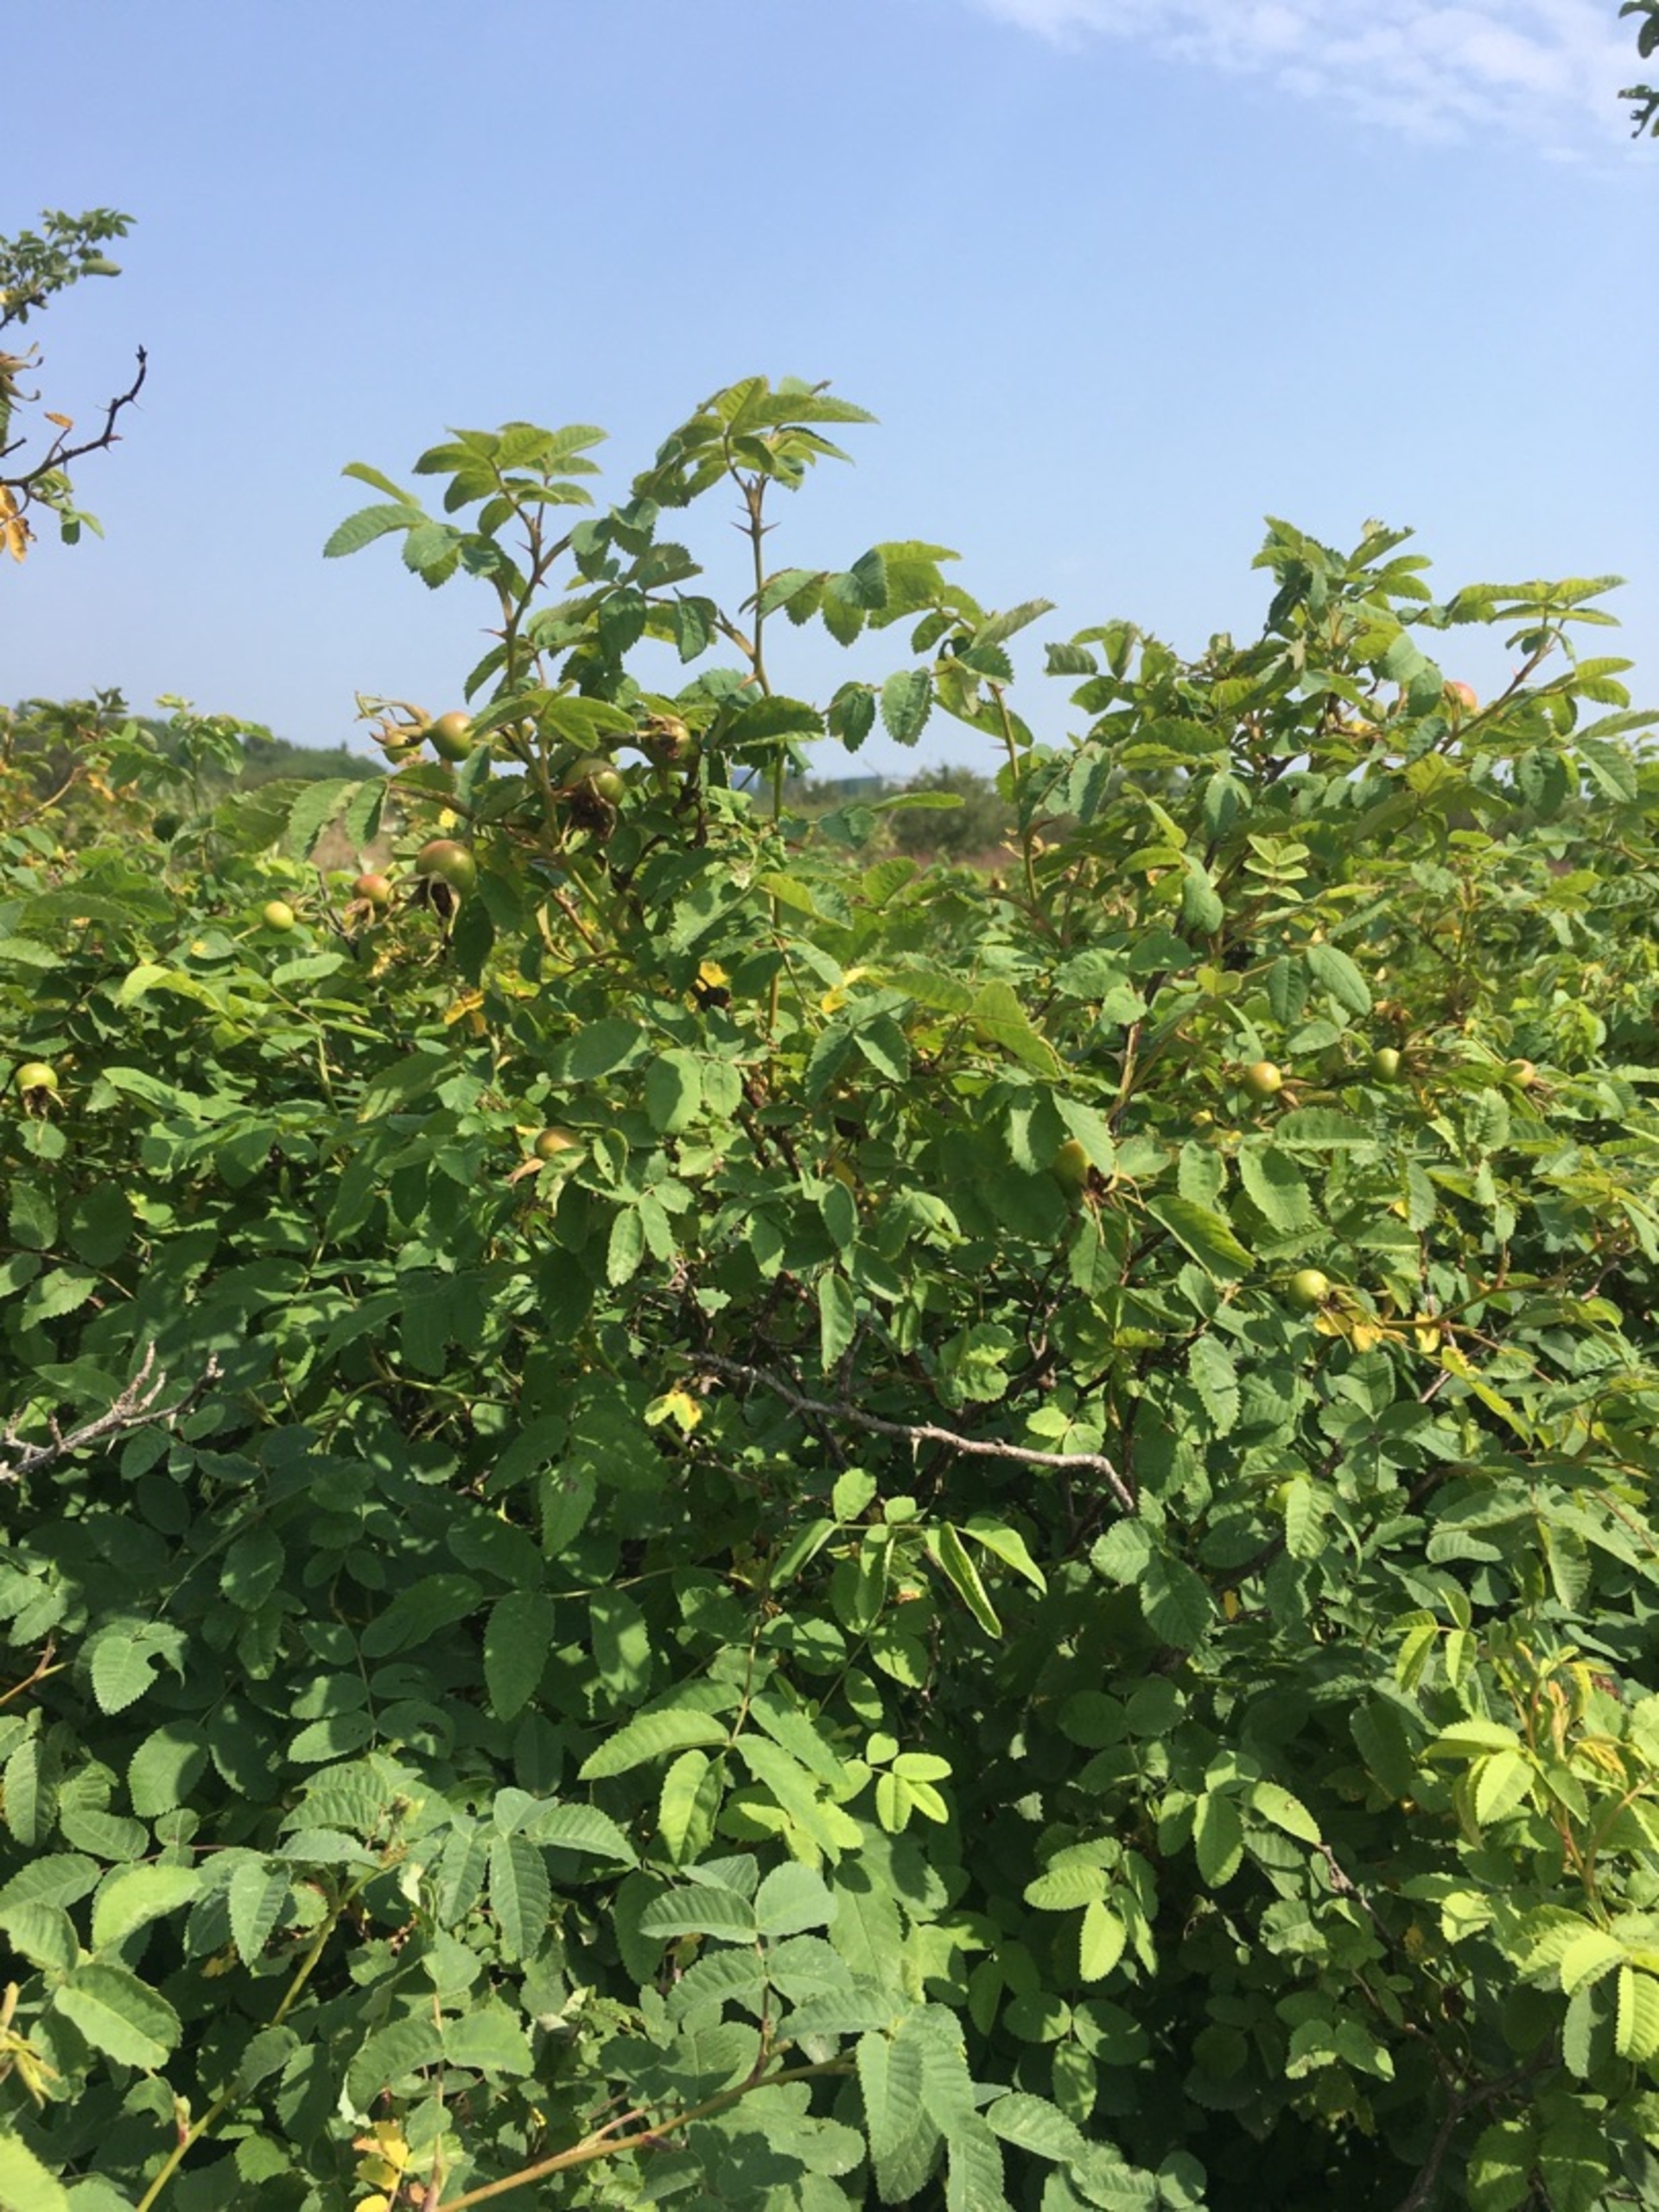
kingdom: Plantae
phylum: Tracheophyta
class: Magnoliopsida
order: Rosales
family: Rosaceae
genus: Rosa
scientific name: Rosa mollis
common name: Blød filt-rose
